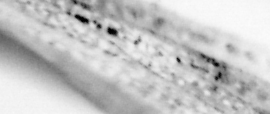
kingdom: Animalia
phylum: Chordata
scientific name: Chordata
